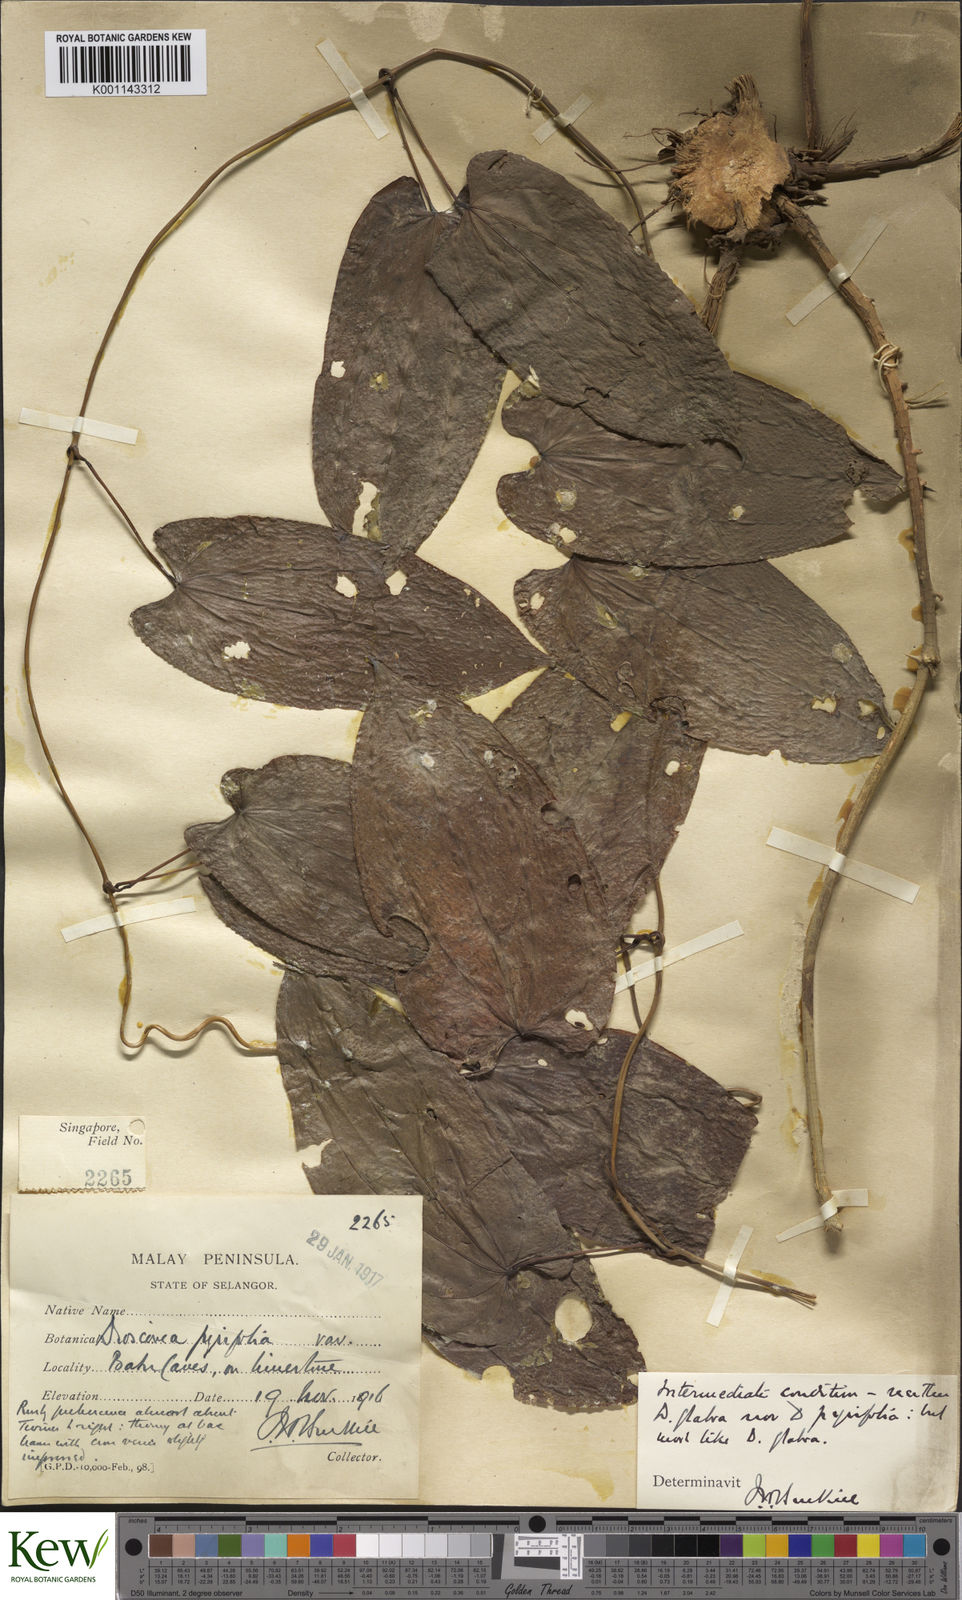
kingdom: Plantae
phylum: Tracheophyta
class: Liliopsida
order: Dioscoreales
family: Dioscoreaceae
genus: Dioscorea
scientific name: Dioscorea glabra
